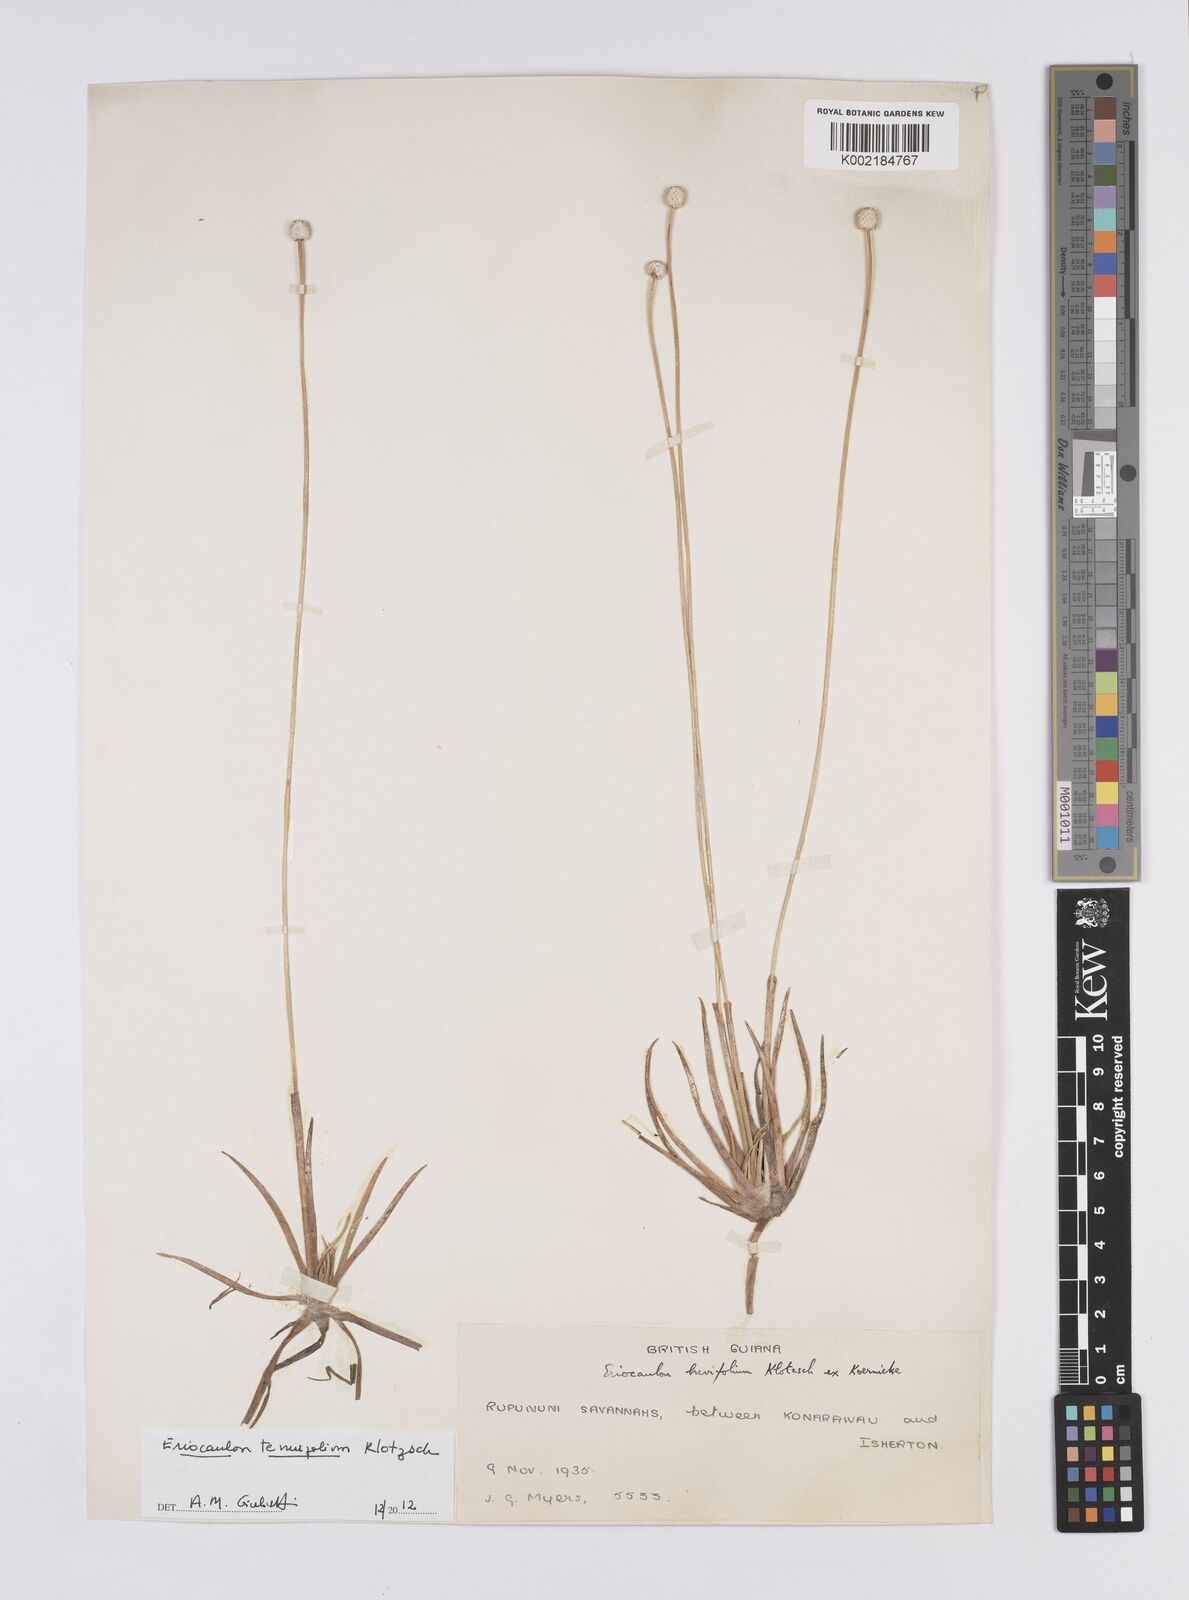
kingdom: Plantae
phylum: Tracheophyta
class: Liliopsida
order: Poales
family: Eriocaulaceae
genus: Eriocaulon
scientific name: Eriocaulon tenuifolium
